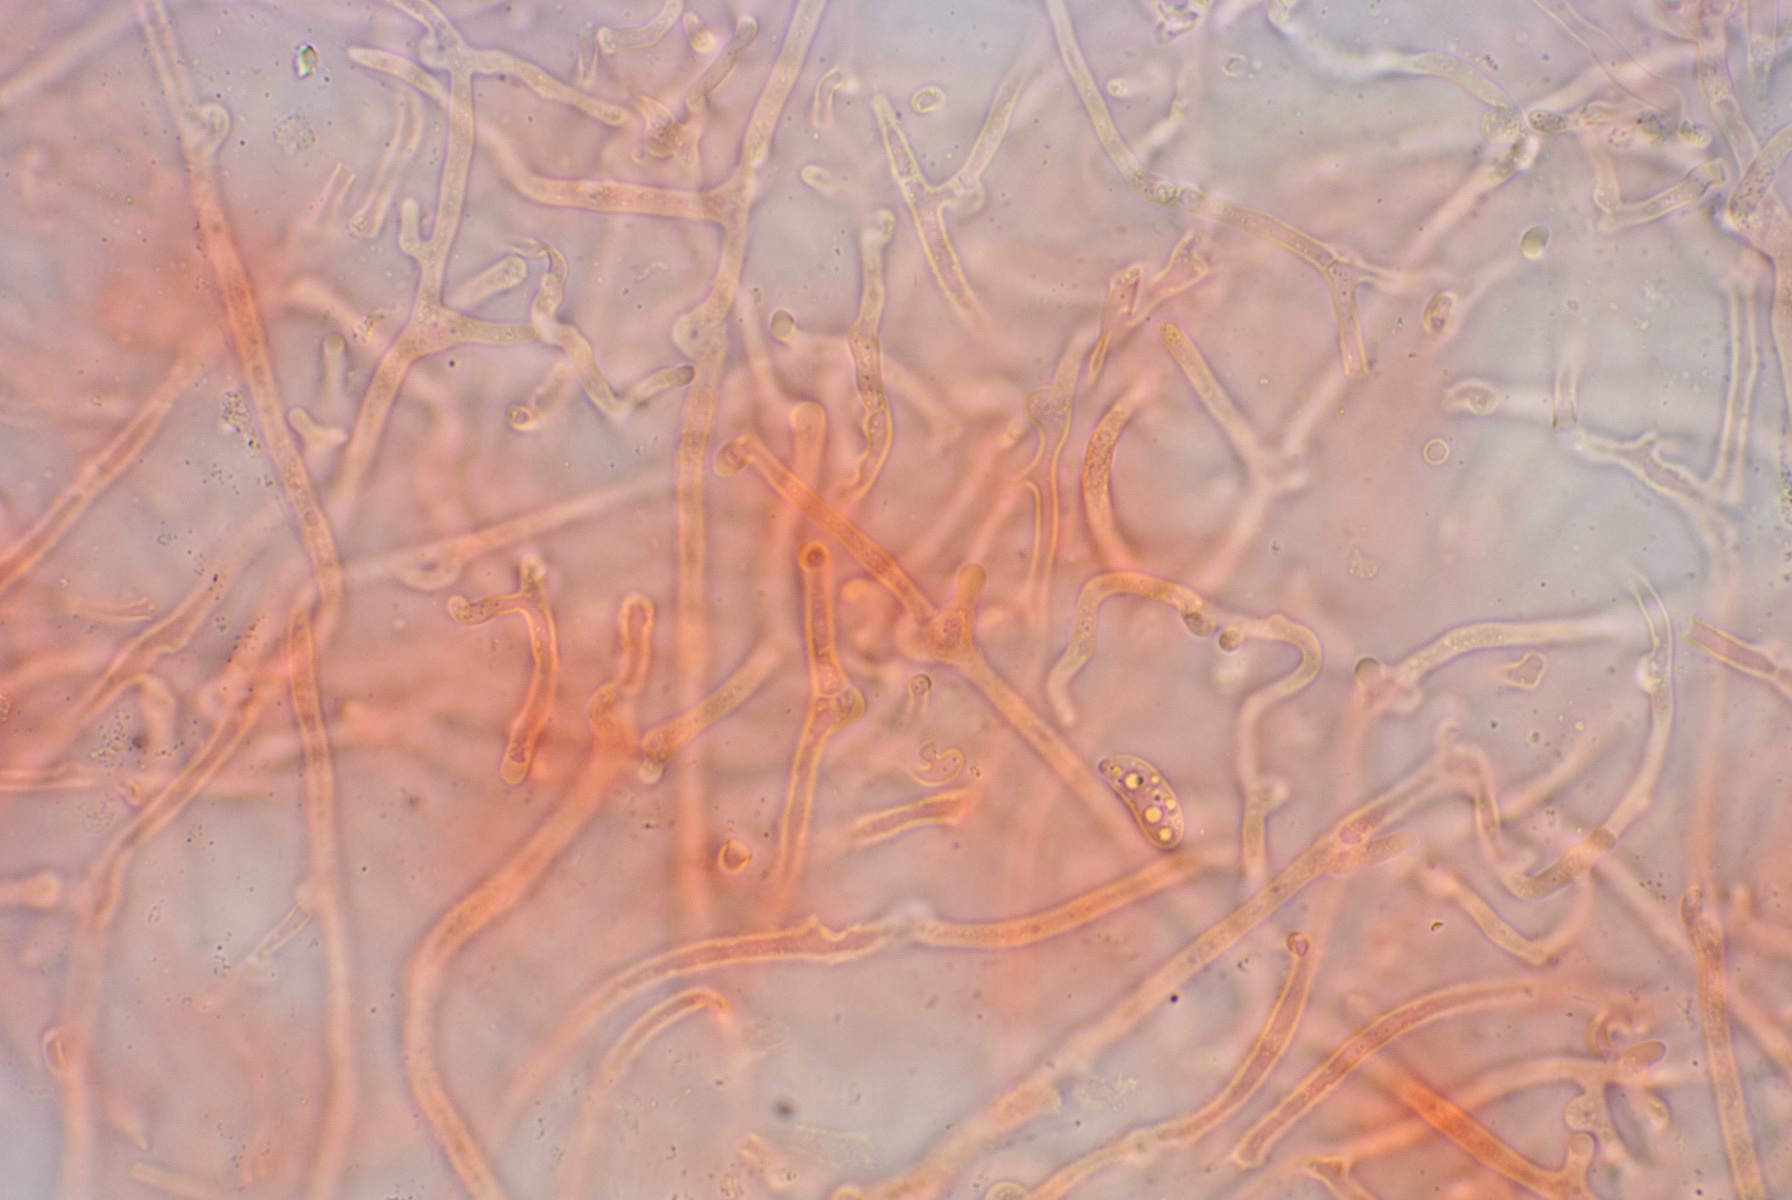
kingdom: Fungi
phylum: Basidiomycota
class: Dacrymycetes
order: Dacrymycetales
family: Cerinomycetaceae
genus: Cerinomyces
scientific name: Cerinomyces tortus
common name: grumset tåresvamp
